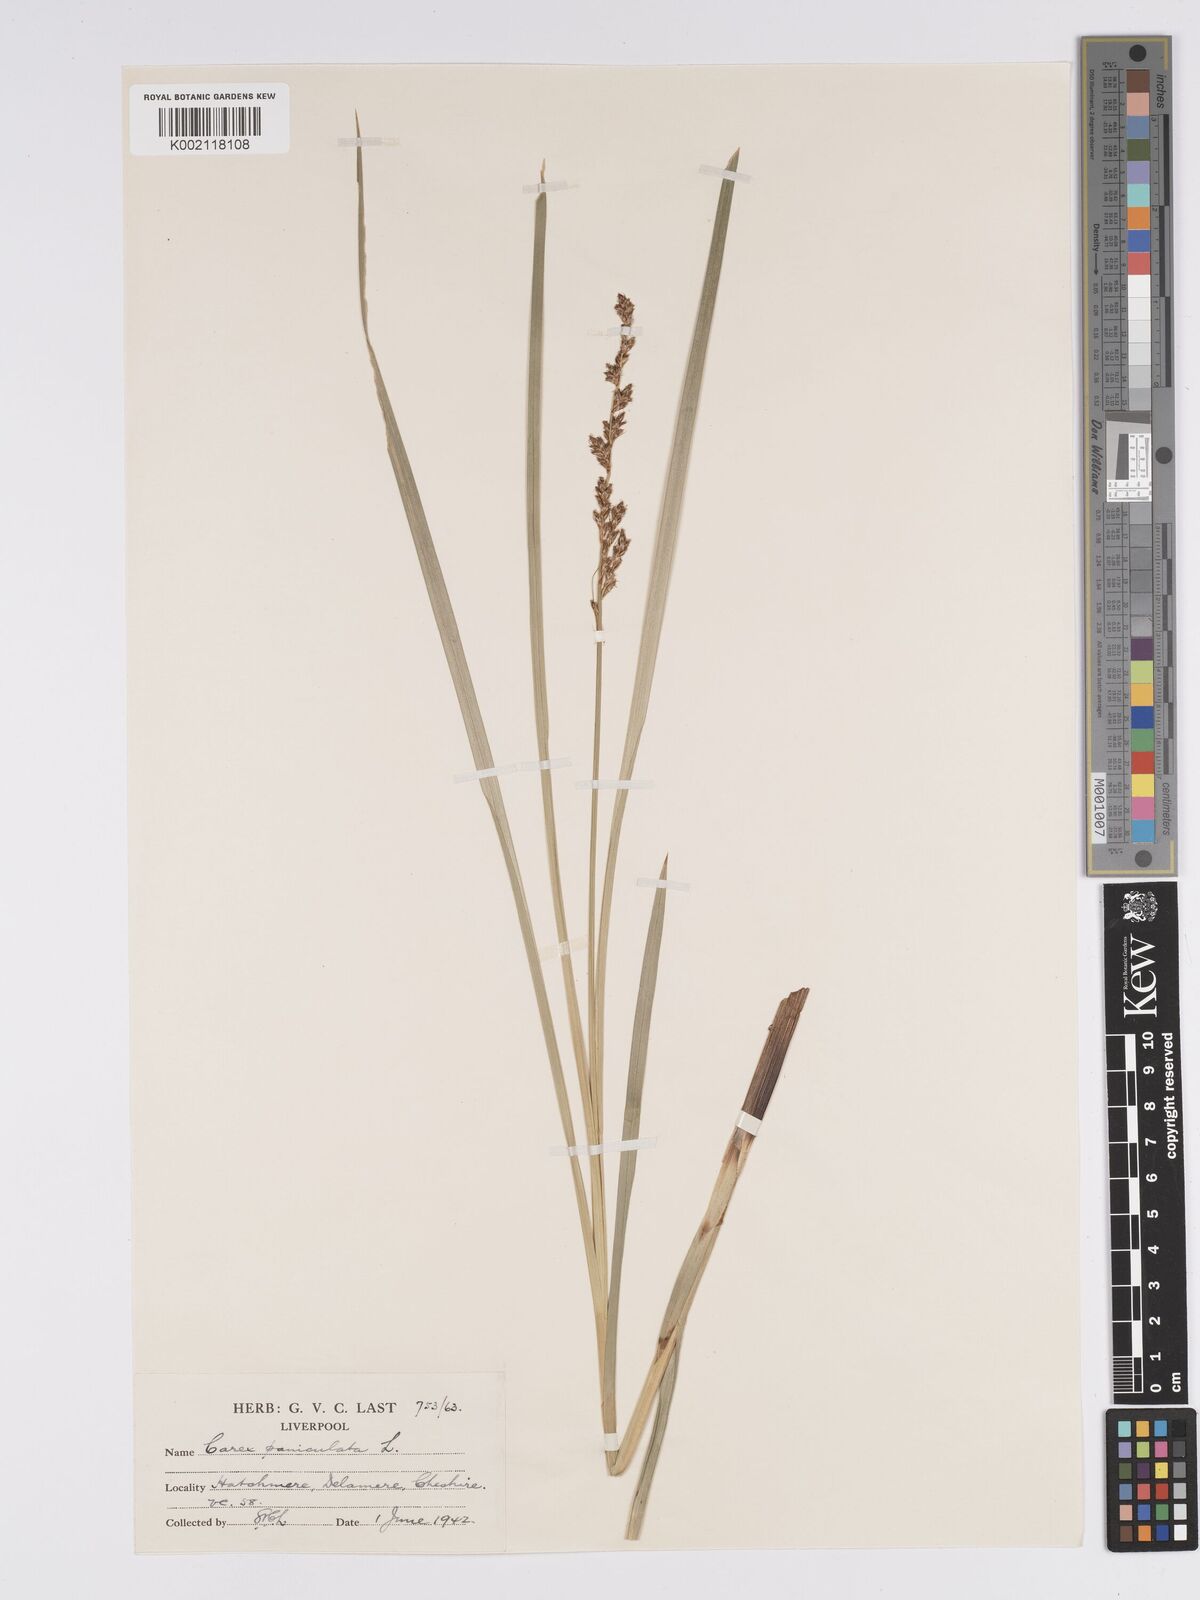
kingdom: Plantae
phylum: Tracheophyta
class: Liliopsida
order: Poales
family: Cyperaceae
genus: Carex
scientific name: Carex paniculata
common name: Greater tussock-sedge
